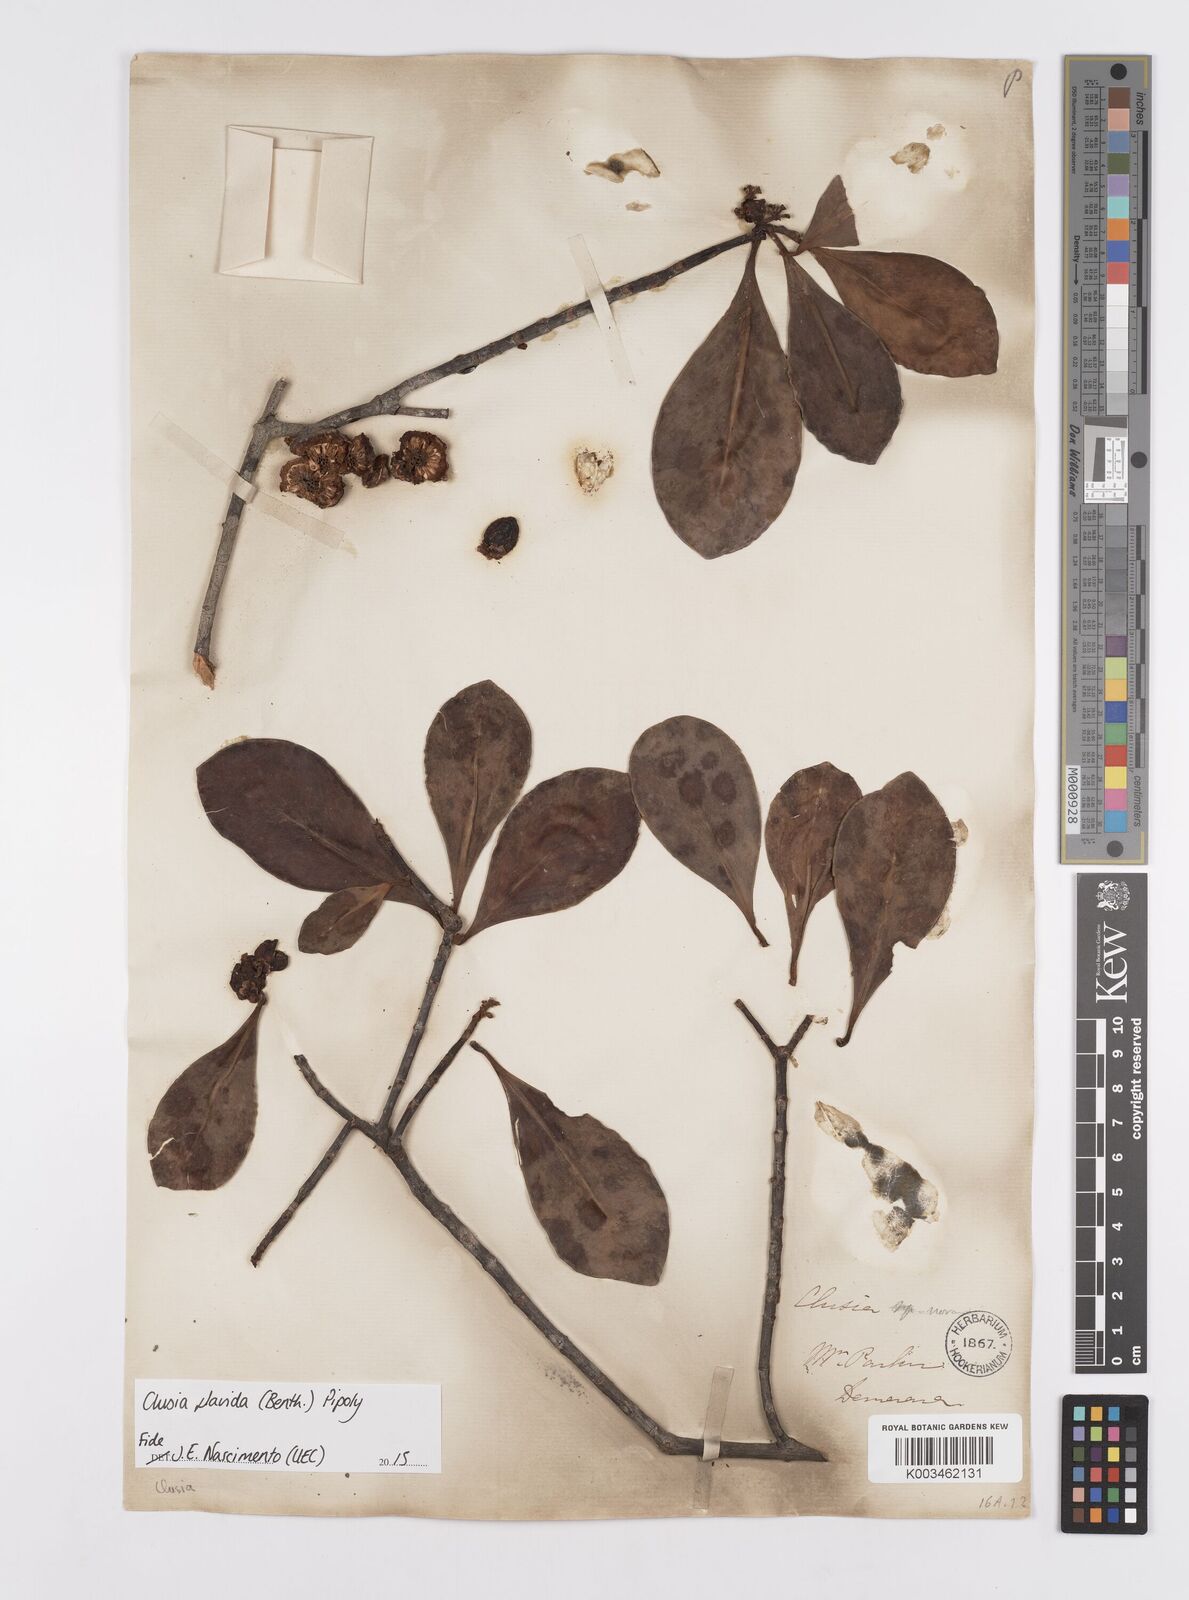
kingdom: Plantae
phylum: Tracheophyta
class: Magnoliopsida
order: Malpighiales
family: Clusiaceae
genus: Clusia
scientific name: Clusia flavida
